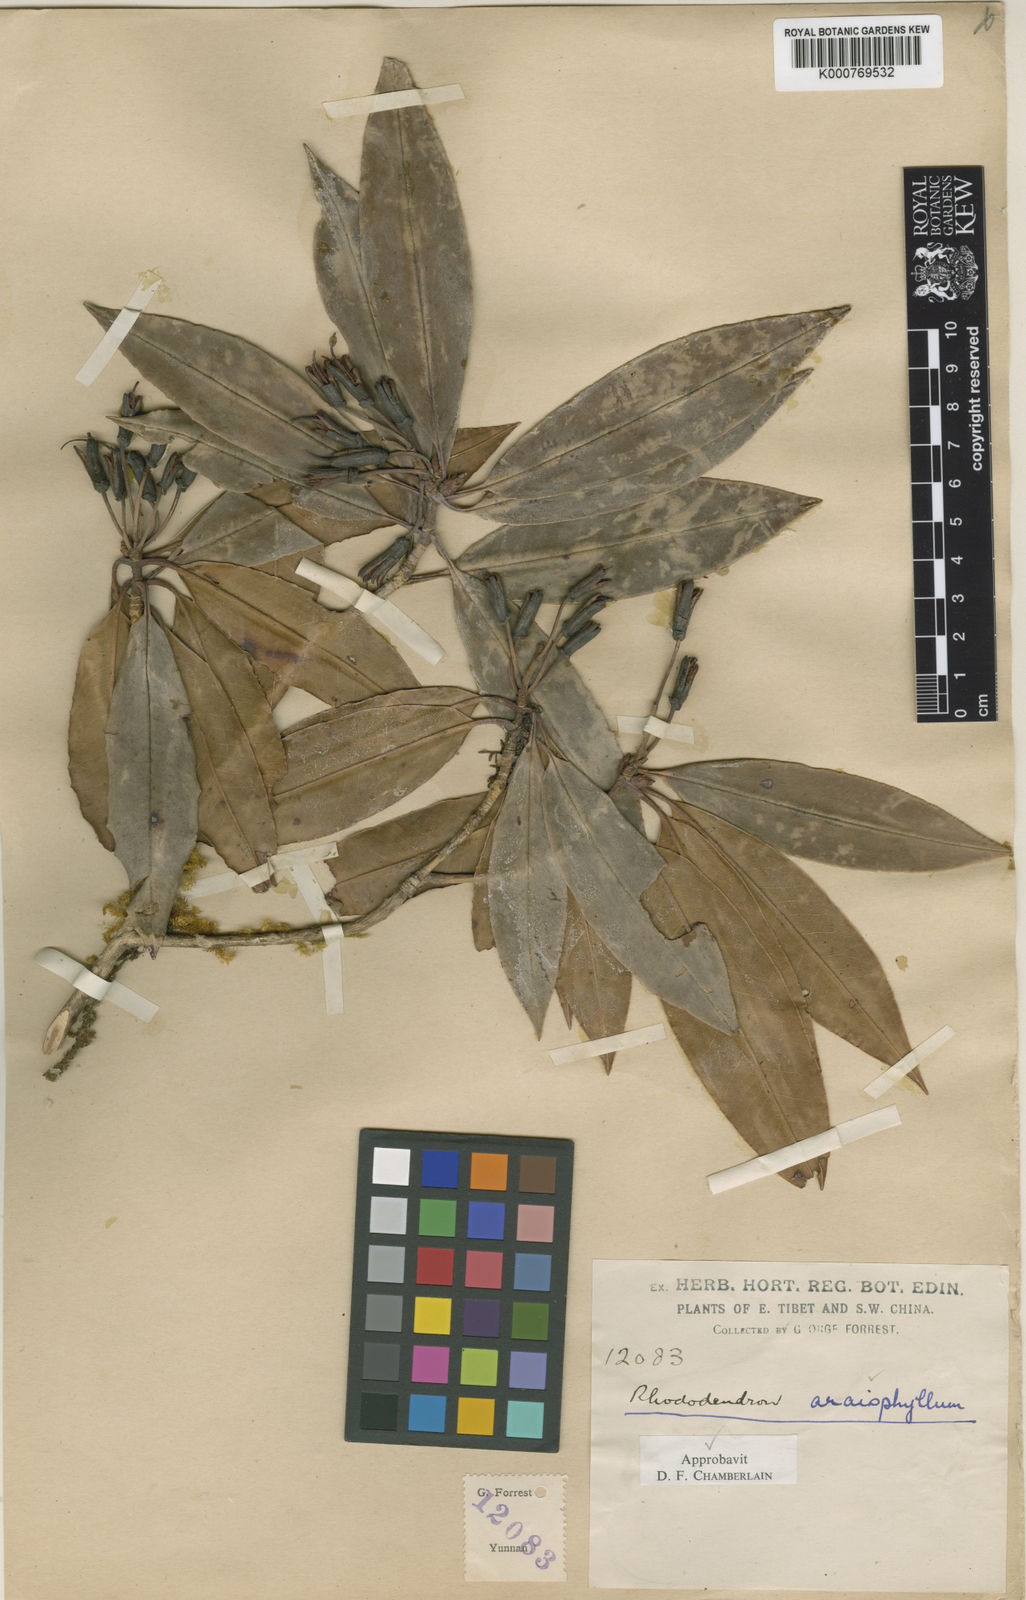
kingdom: Plantae
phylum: Tracheophyta
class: Magnoliopsida
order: Ericales
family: Ericaceae
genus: Rhododendron
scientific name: Rhododendron araiophyllum
